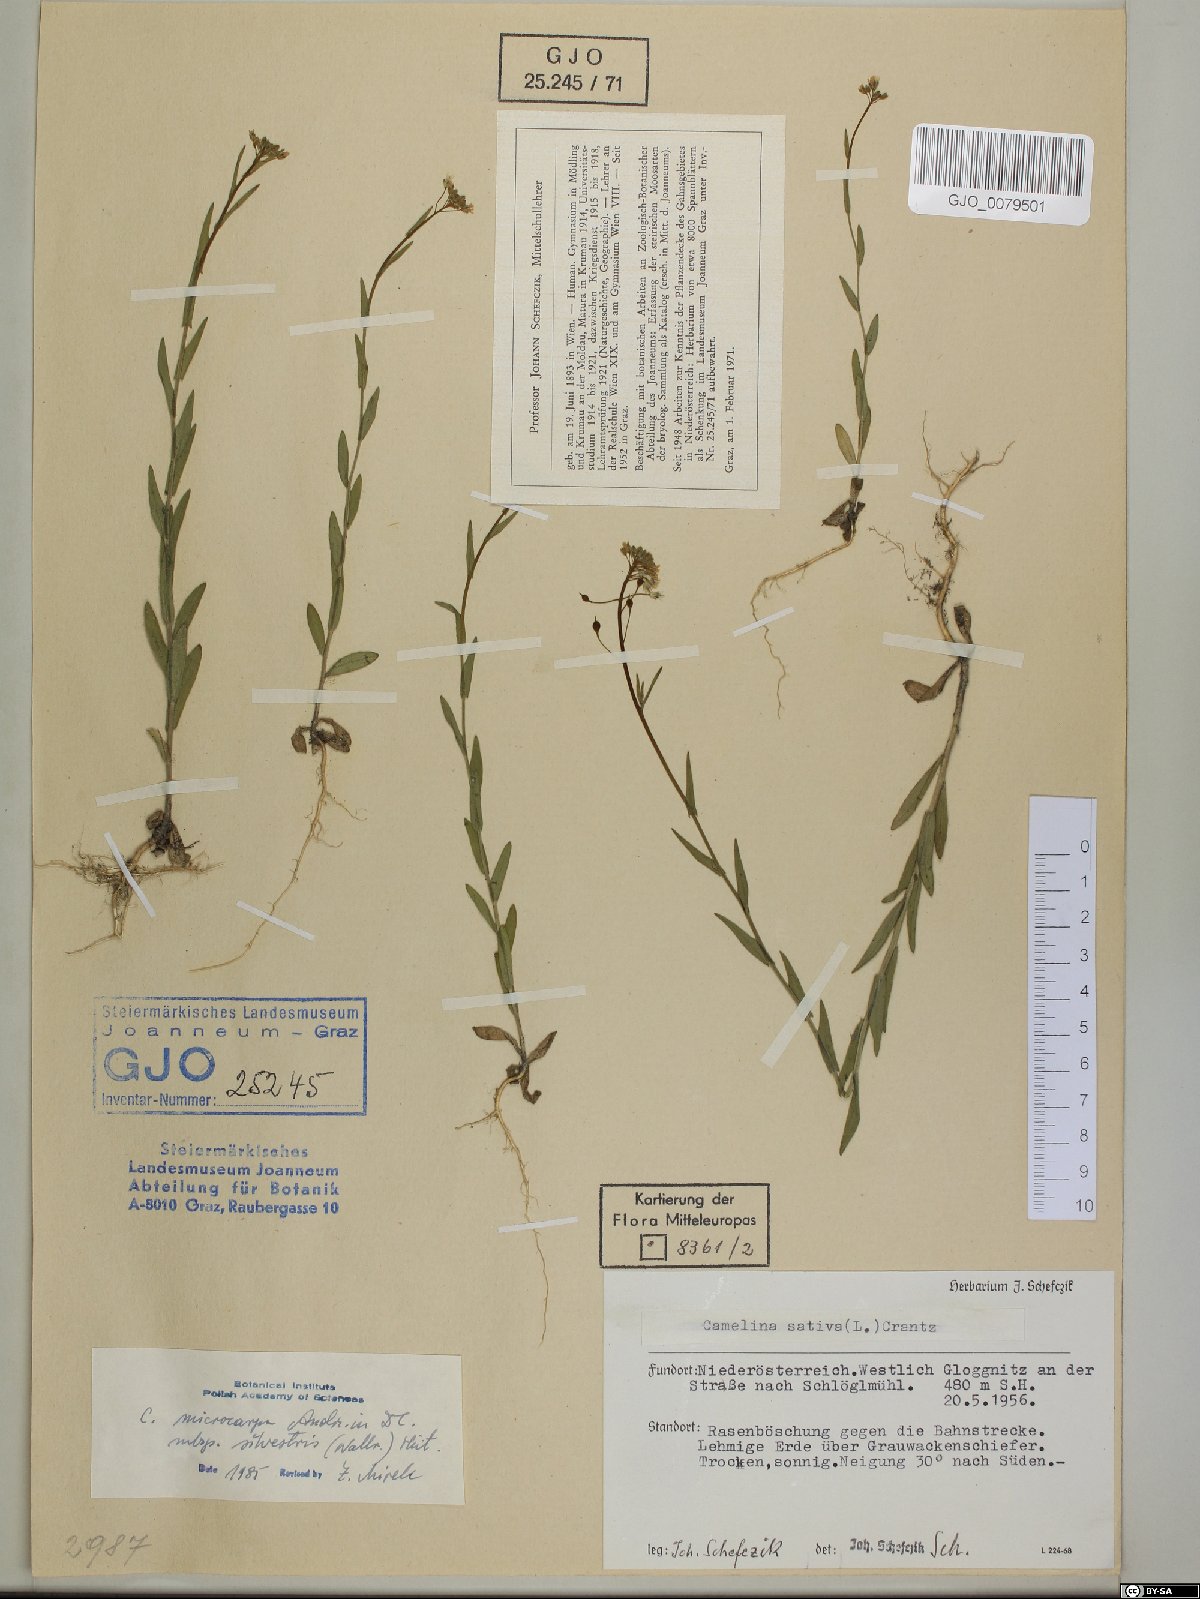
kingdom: Plantae
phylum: Tracheophyta
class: Magnoliopsida
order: Brassicales
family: Brassicaceae
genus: Camelina
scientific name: Camelina microcarpa
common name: Lesser gold-of-pleasure
